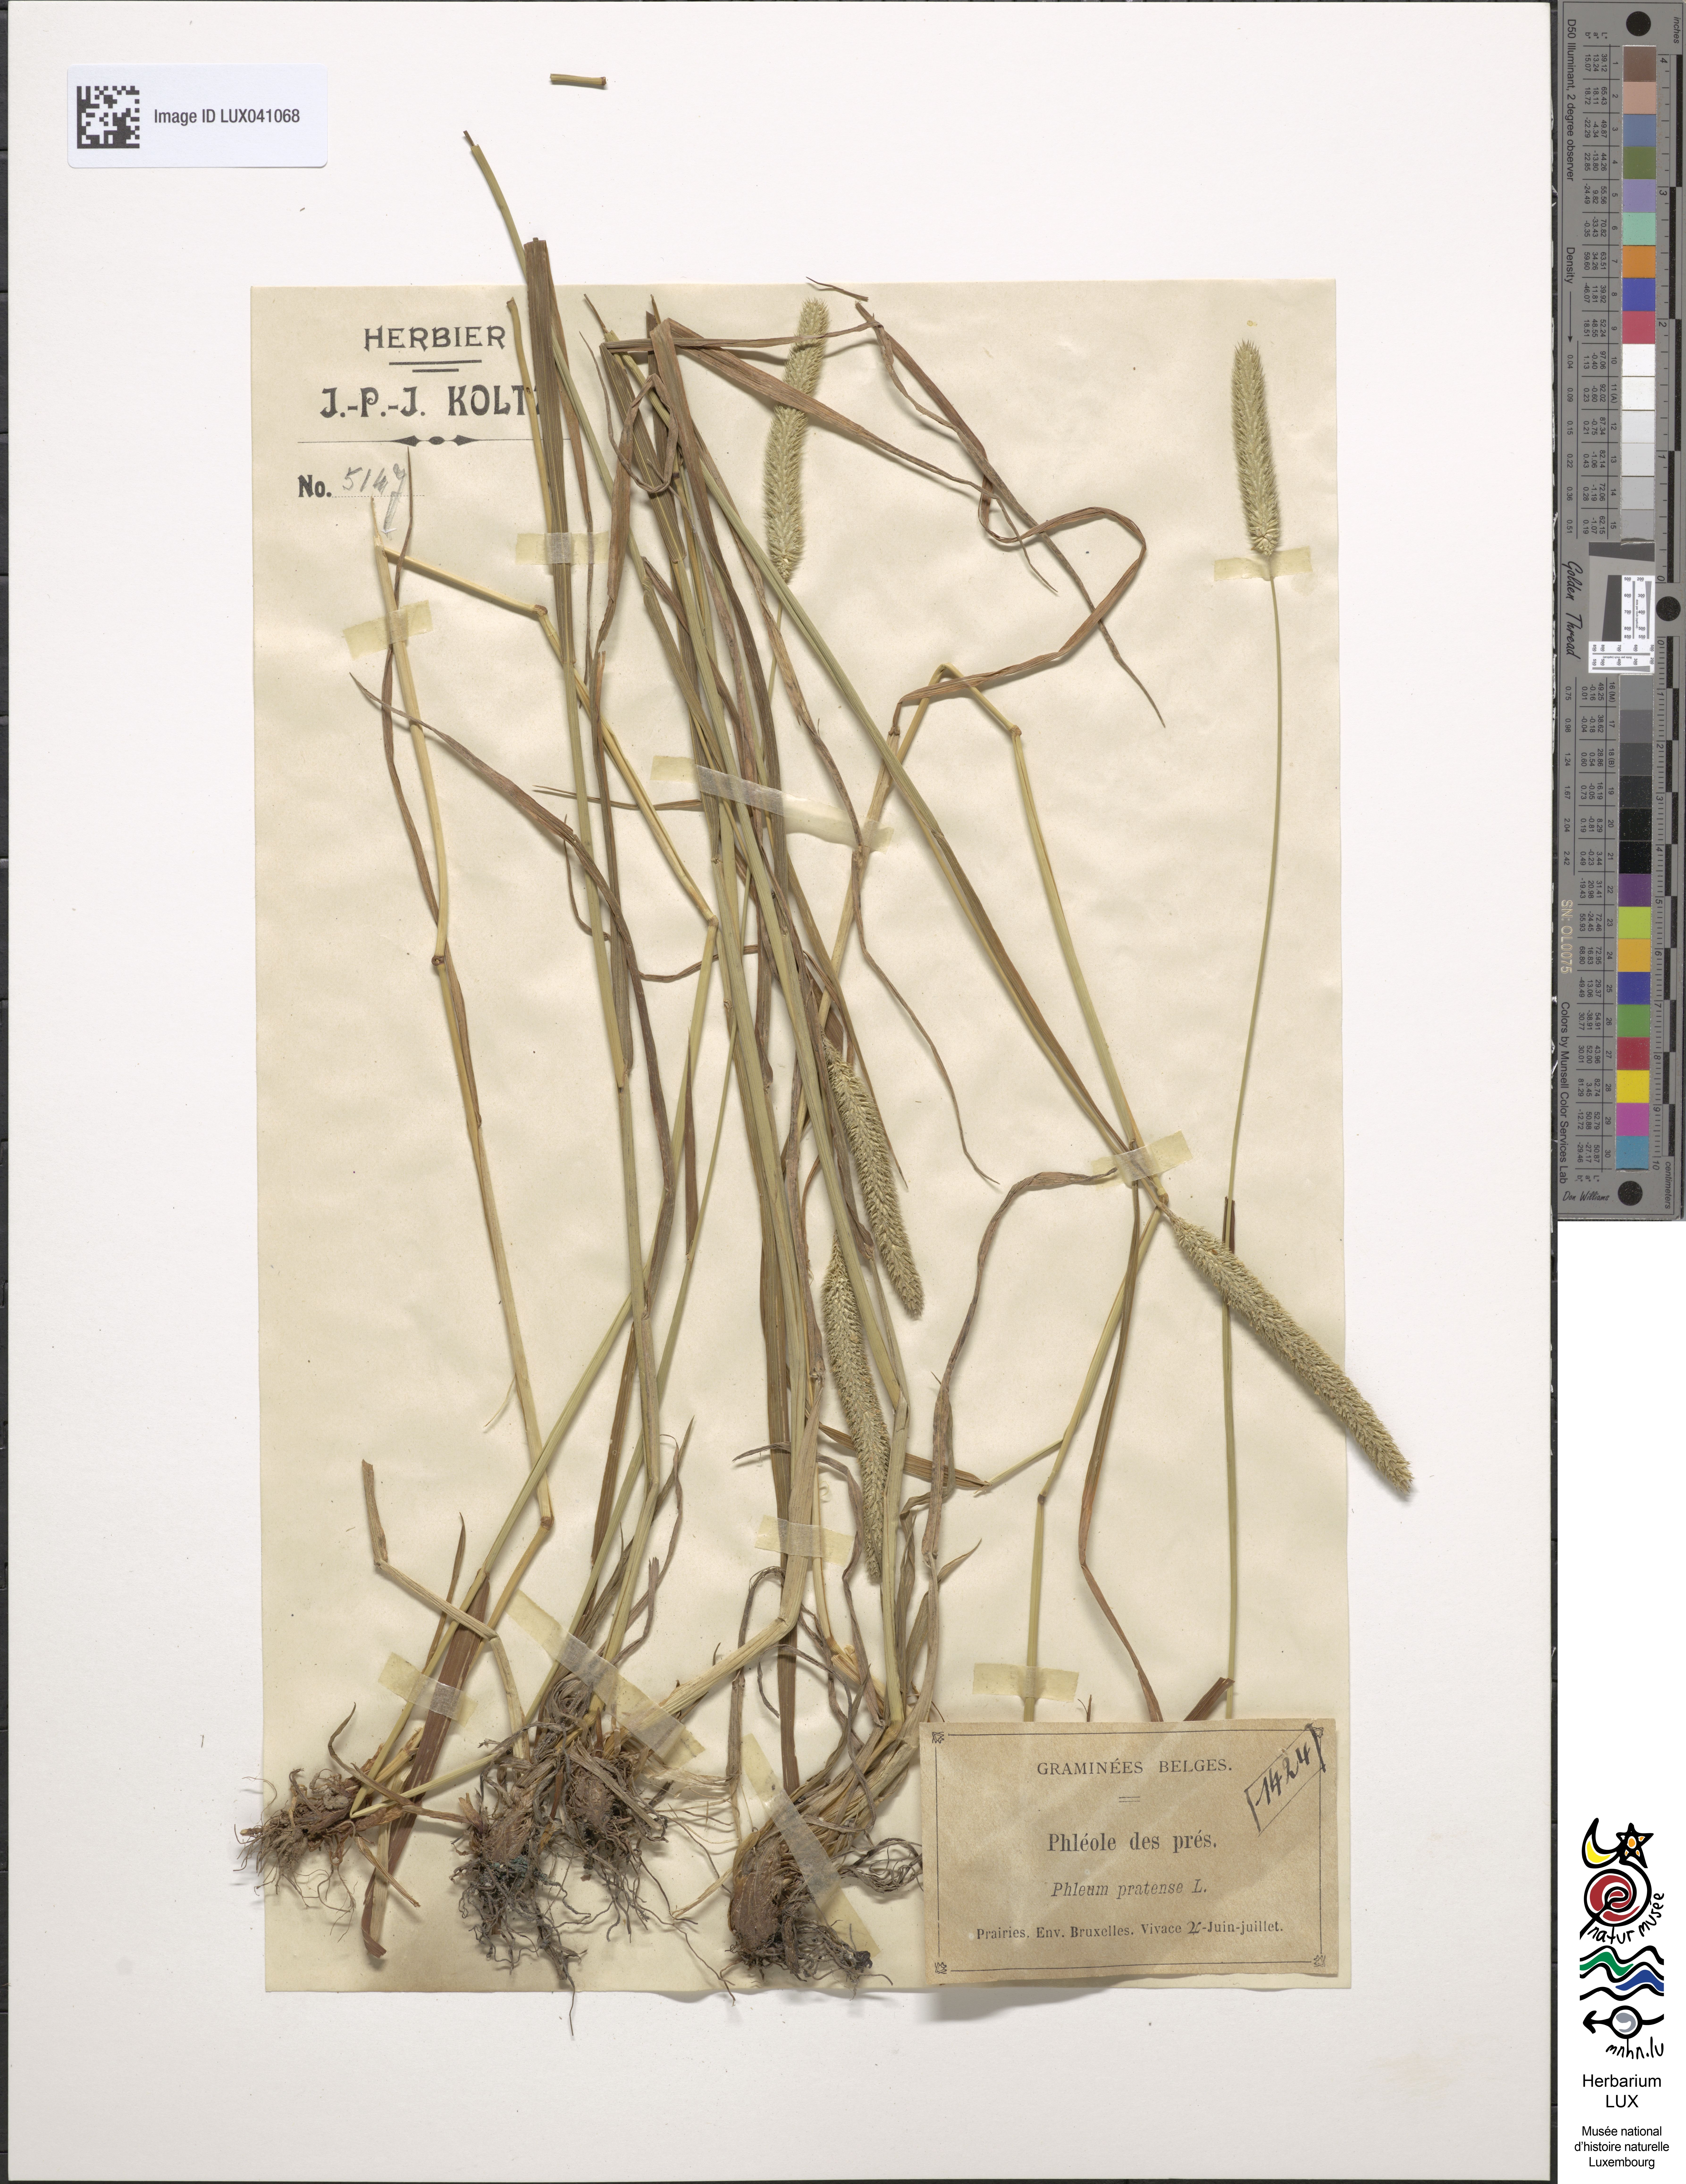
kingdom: Plantae
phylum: Tracheophyta
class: Liliopsida
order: Poales
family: Poaceae
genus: Phleum
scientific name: Phleum pratense
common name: Timothy grass
